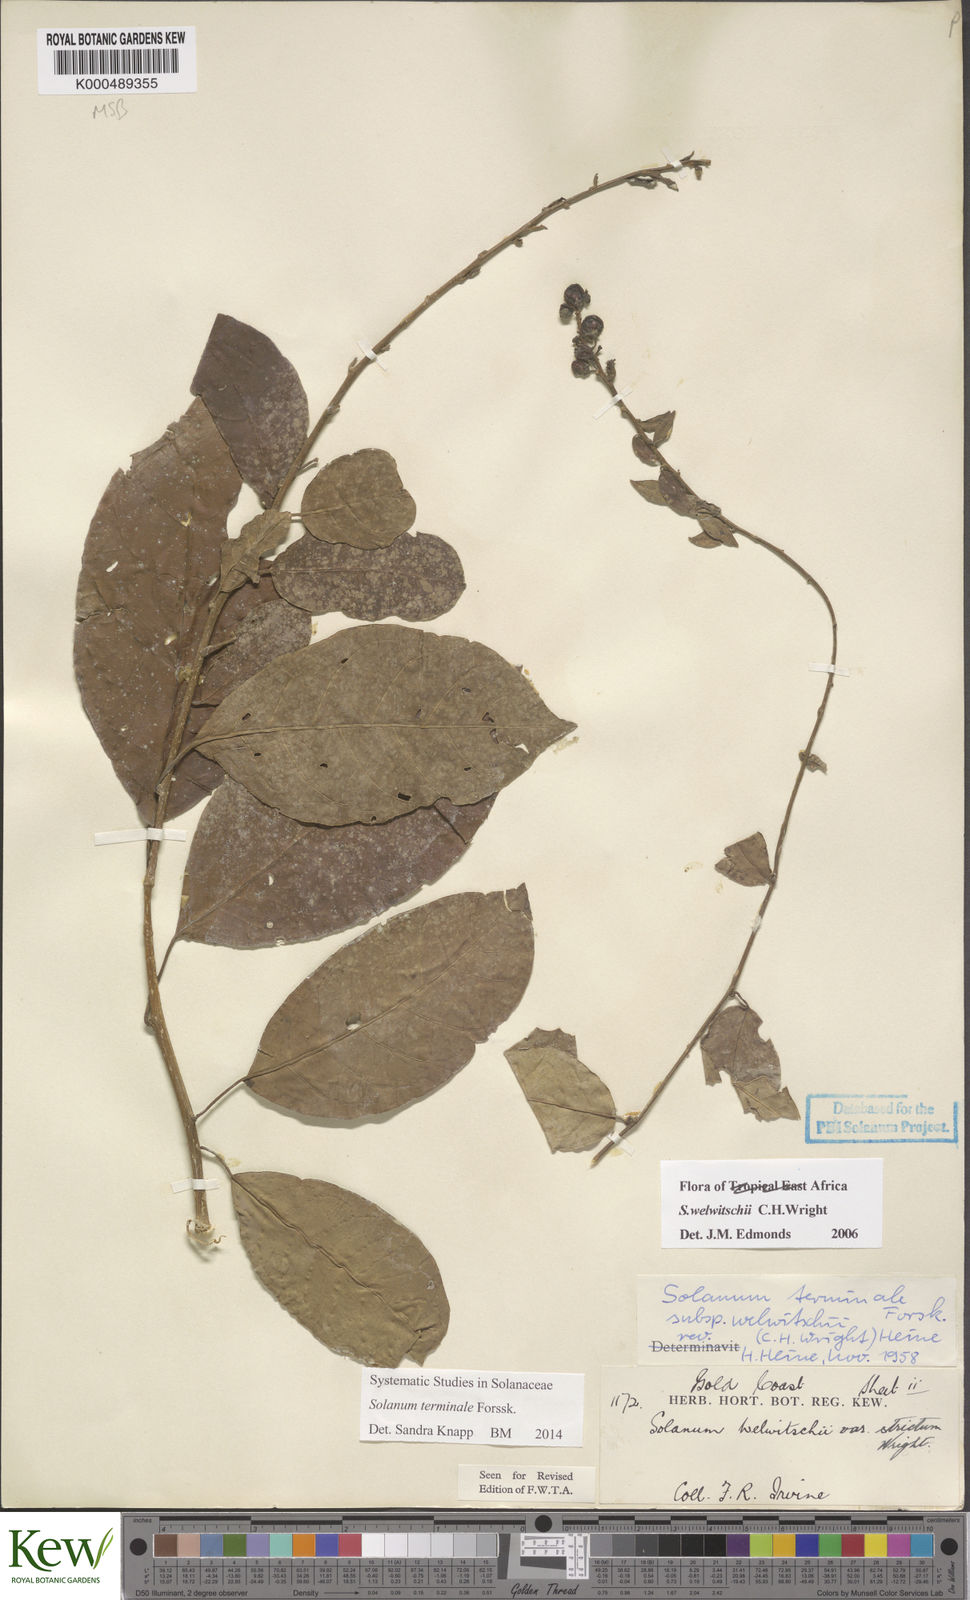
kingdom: Plantae
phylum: Tracheophyta
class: Magnoliopsida
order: Solanales
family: Solanaceae
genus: Solanum
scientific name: Solanum terminale
